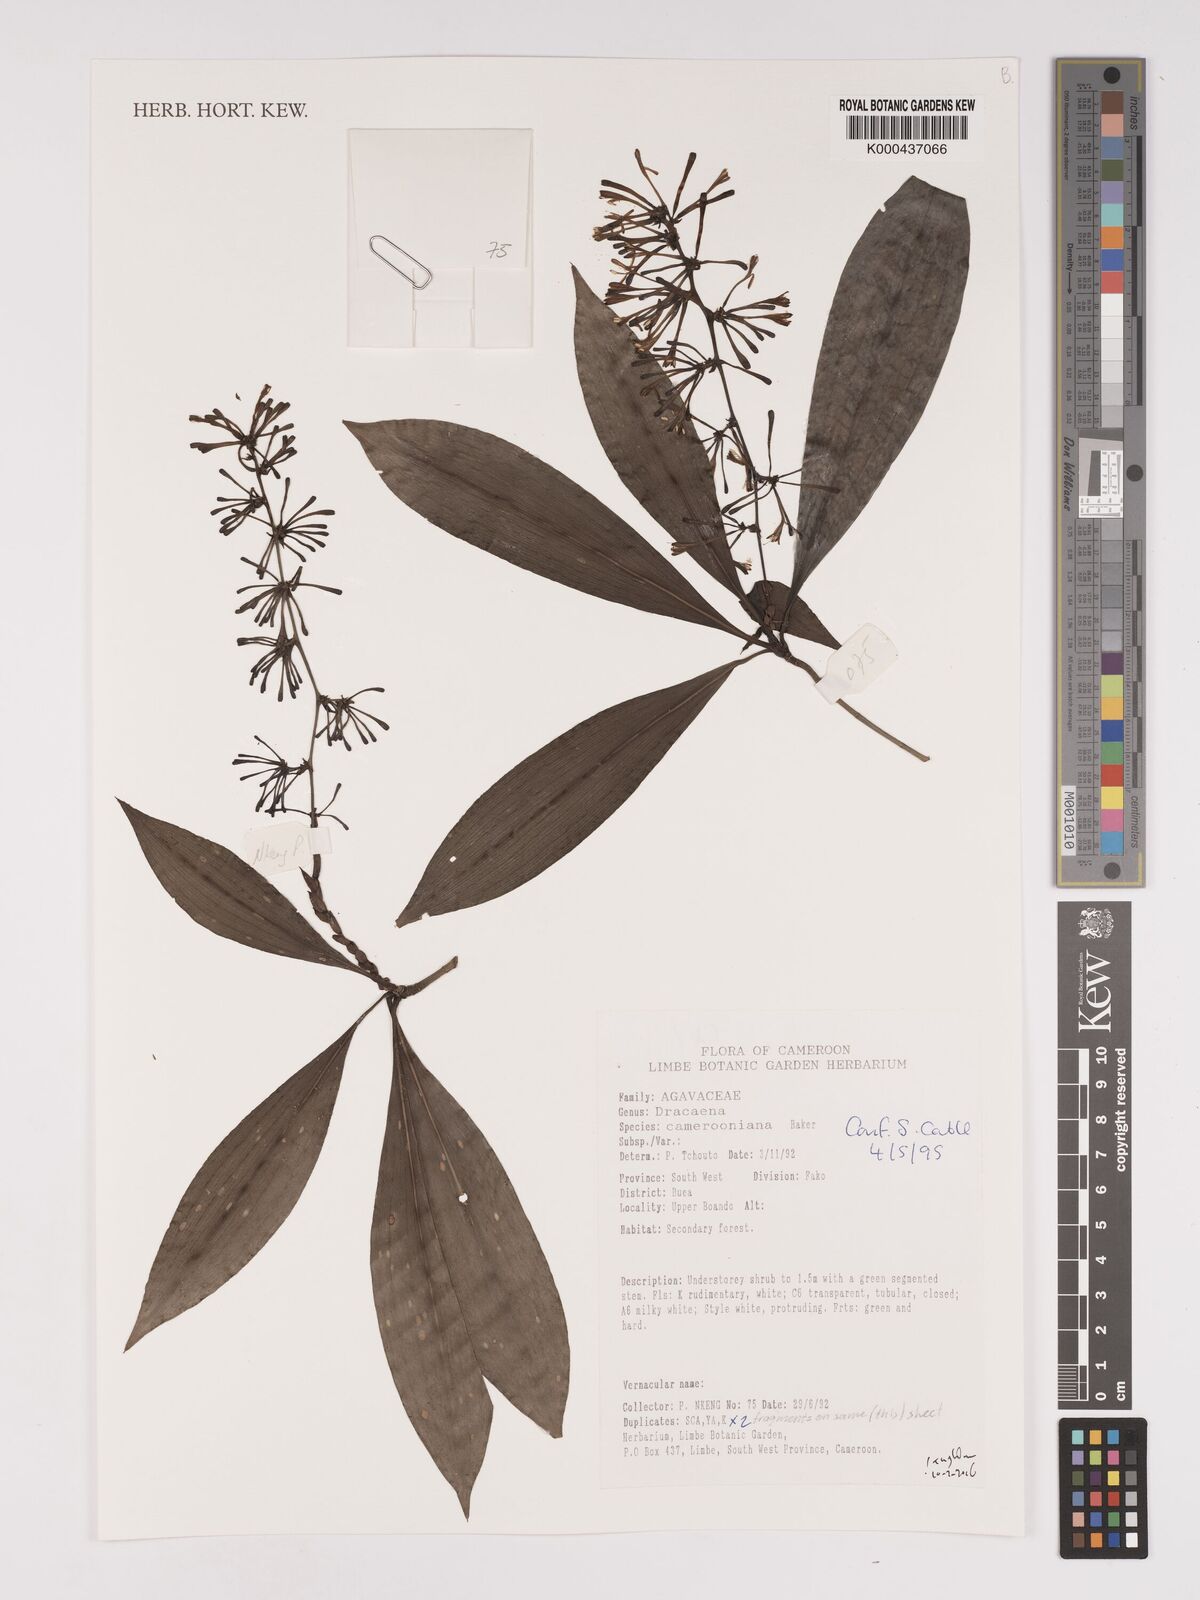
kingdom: Plantae
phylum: Tracheophyta
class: Liliopsida
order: Asparagales
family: Asparagaceae
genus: Dracaena
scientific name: Dracaena camerooniana
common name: Dragon tree
